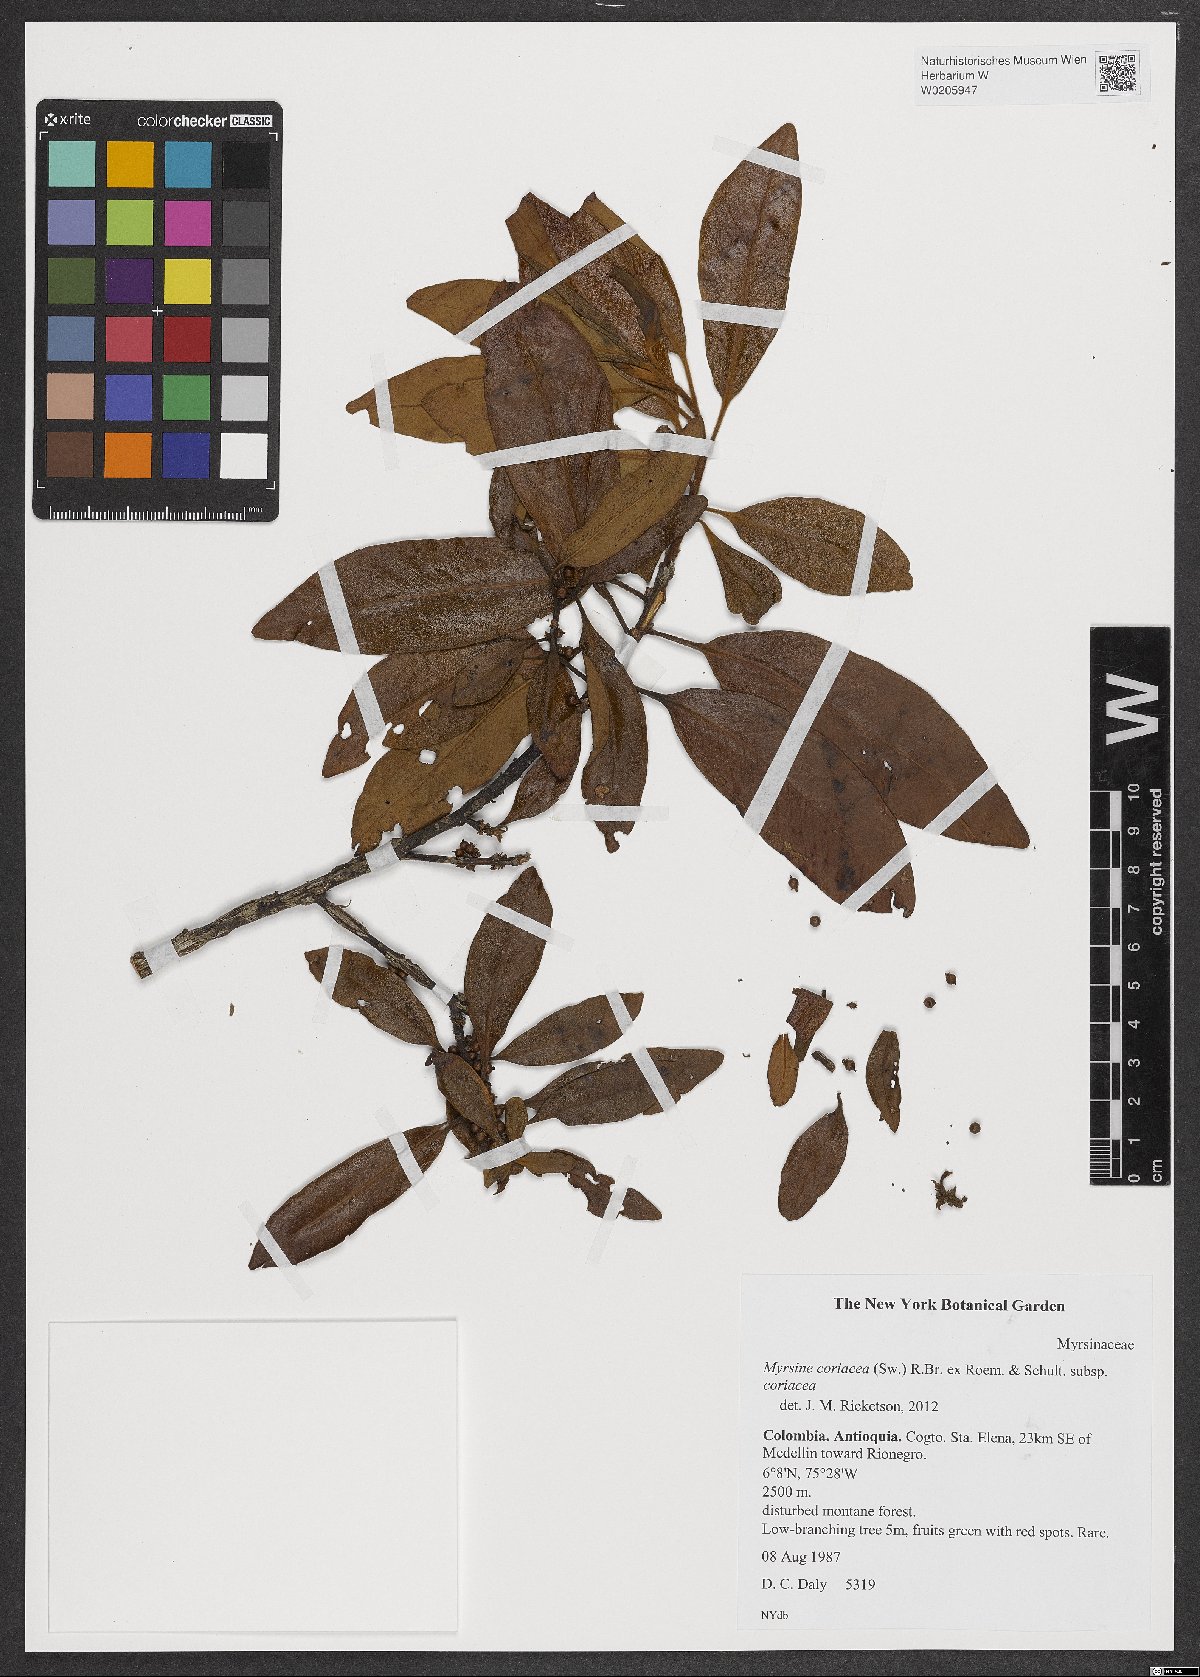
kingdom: Plantae
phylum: Tracheophyta
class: Magnoliopsida
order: Ericales
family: Primulaceae
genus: Myrsine
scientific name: Myrsine coriacea
